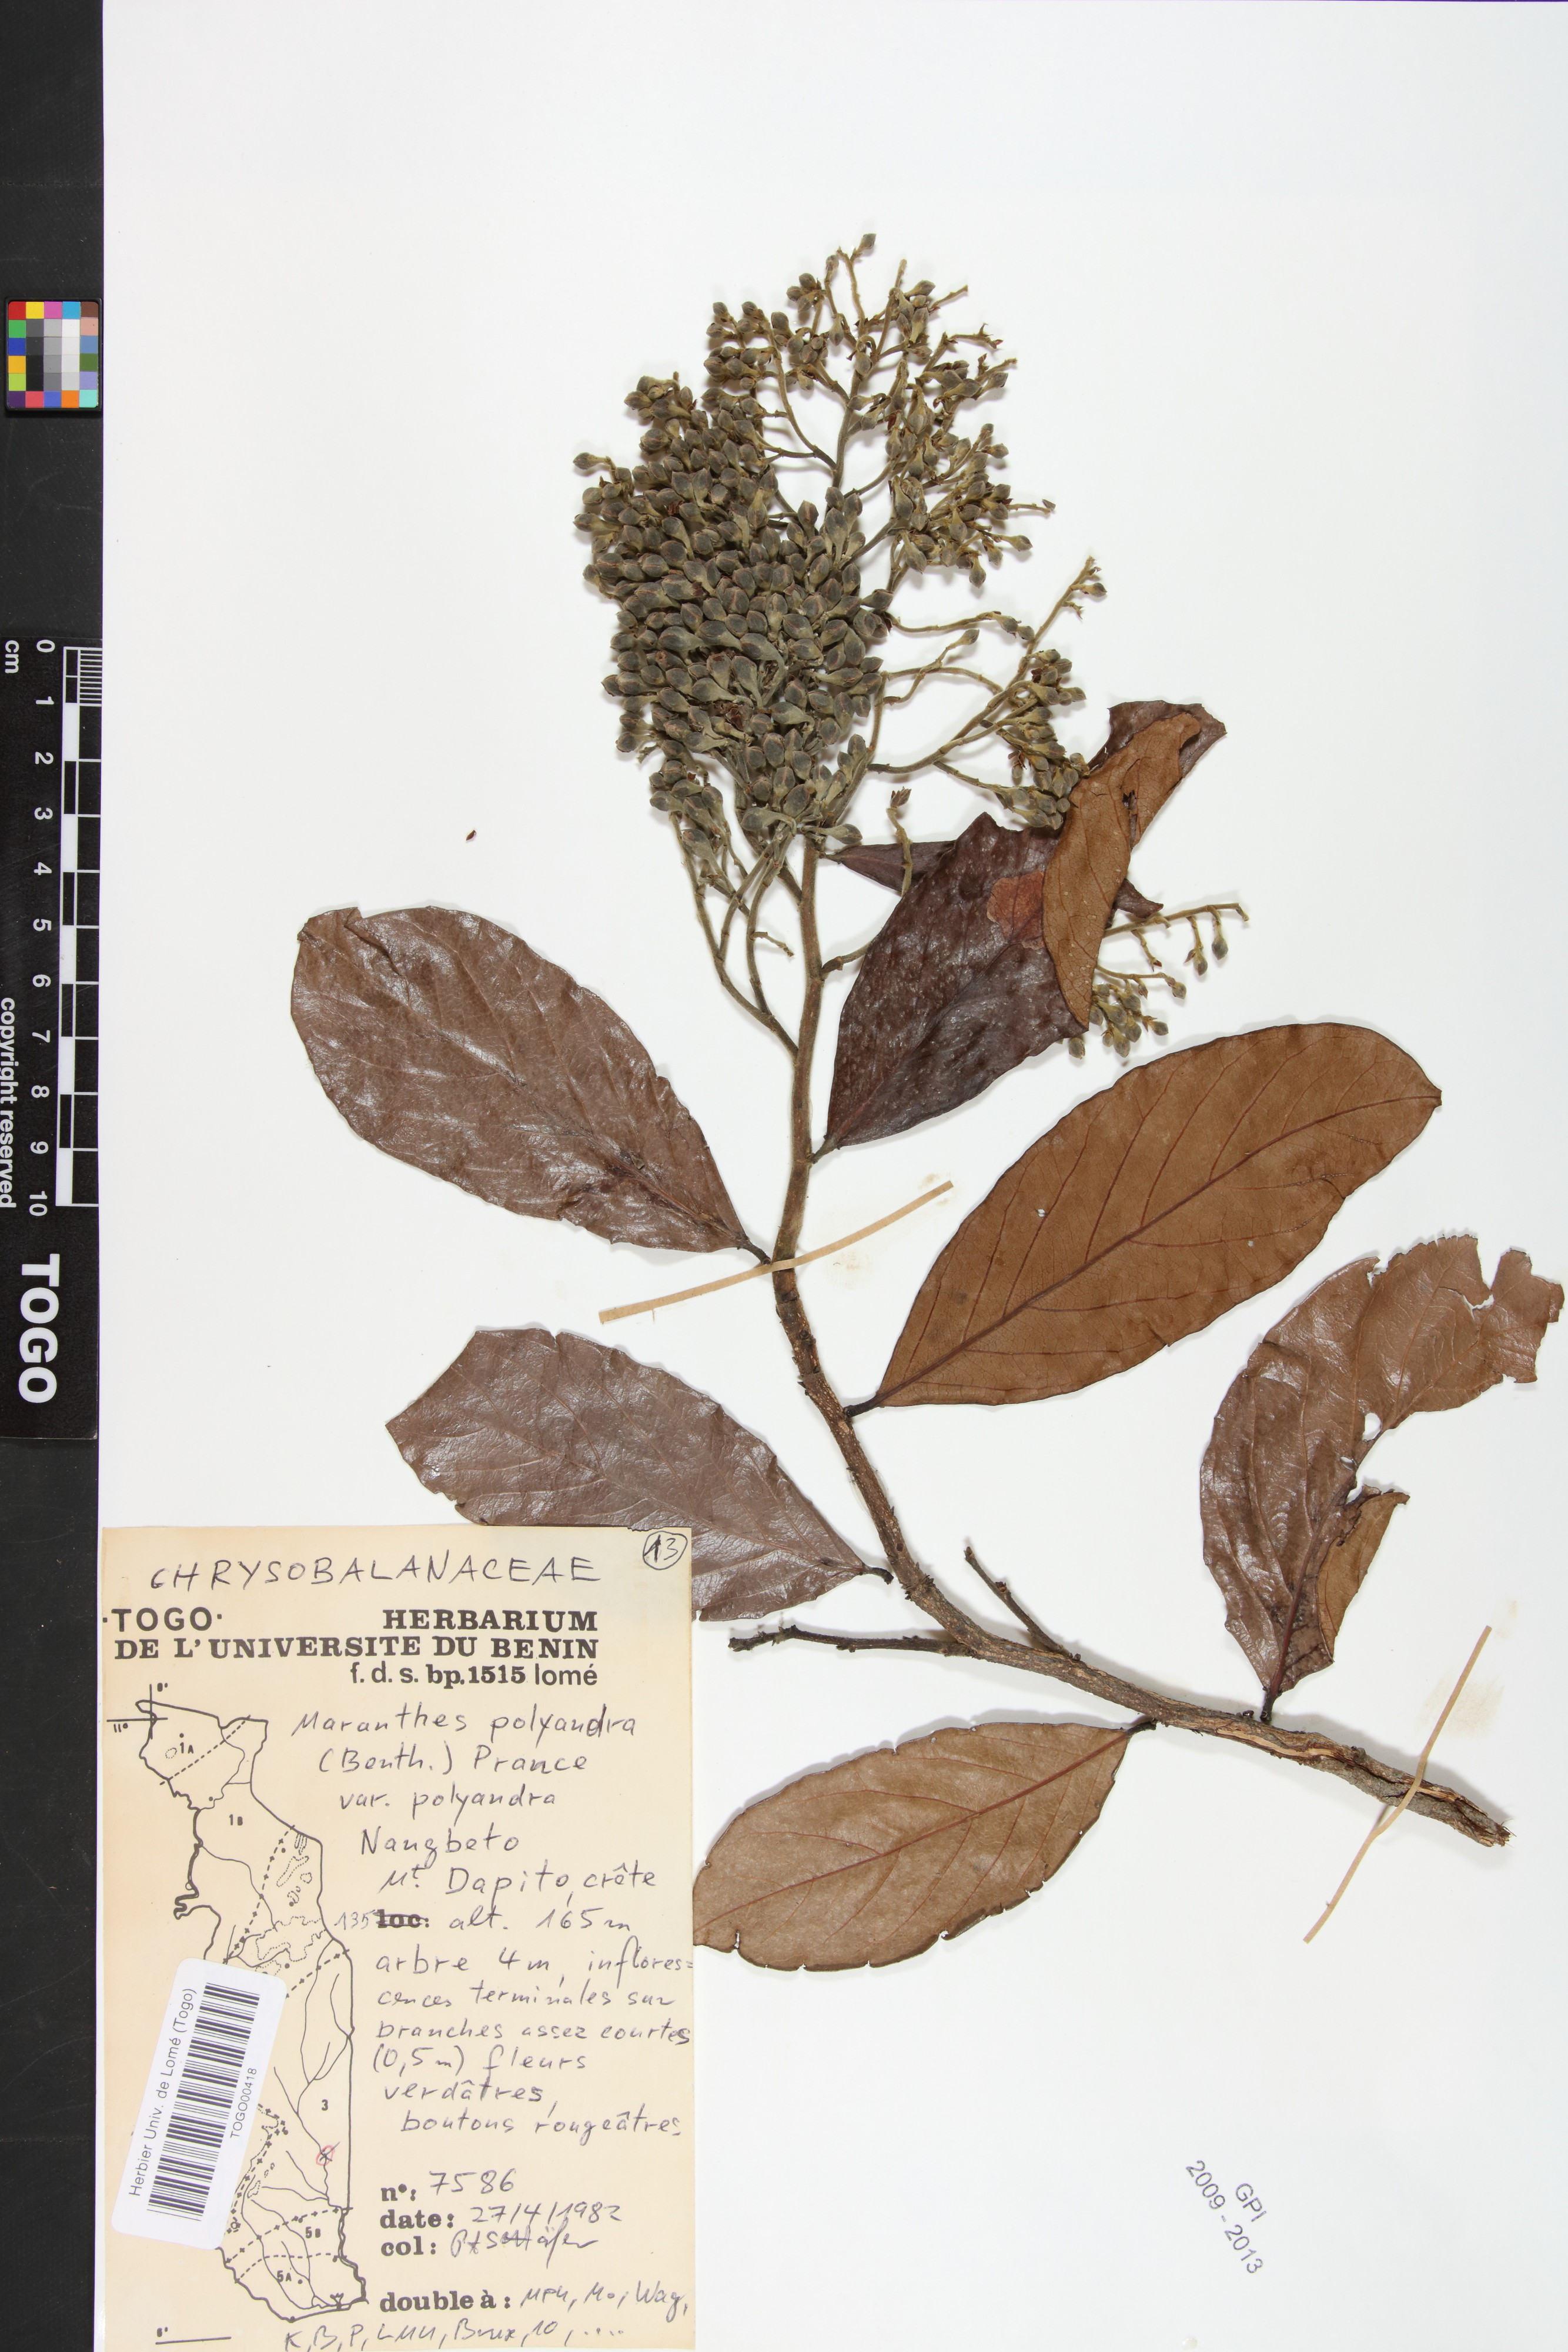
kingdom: Plantae
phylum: Tracheophyta
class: Magnoliopsida
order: Malpighiales
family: Chrysobalanaceae
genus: Maranthes
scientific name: Maranthes polyandra
